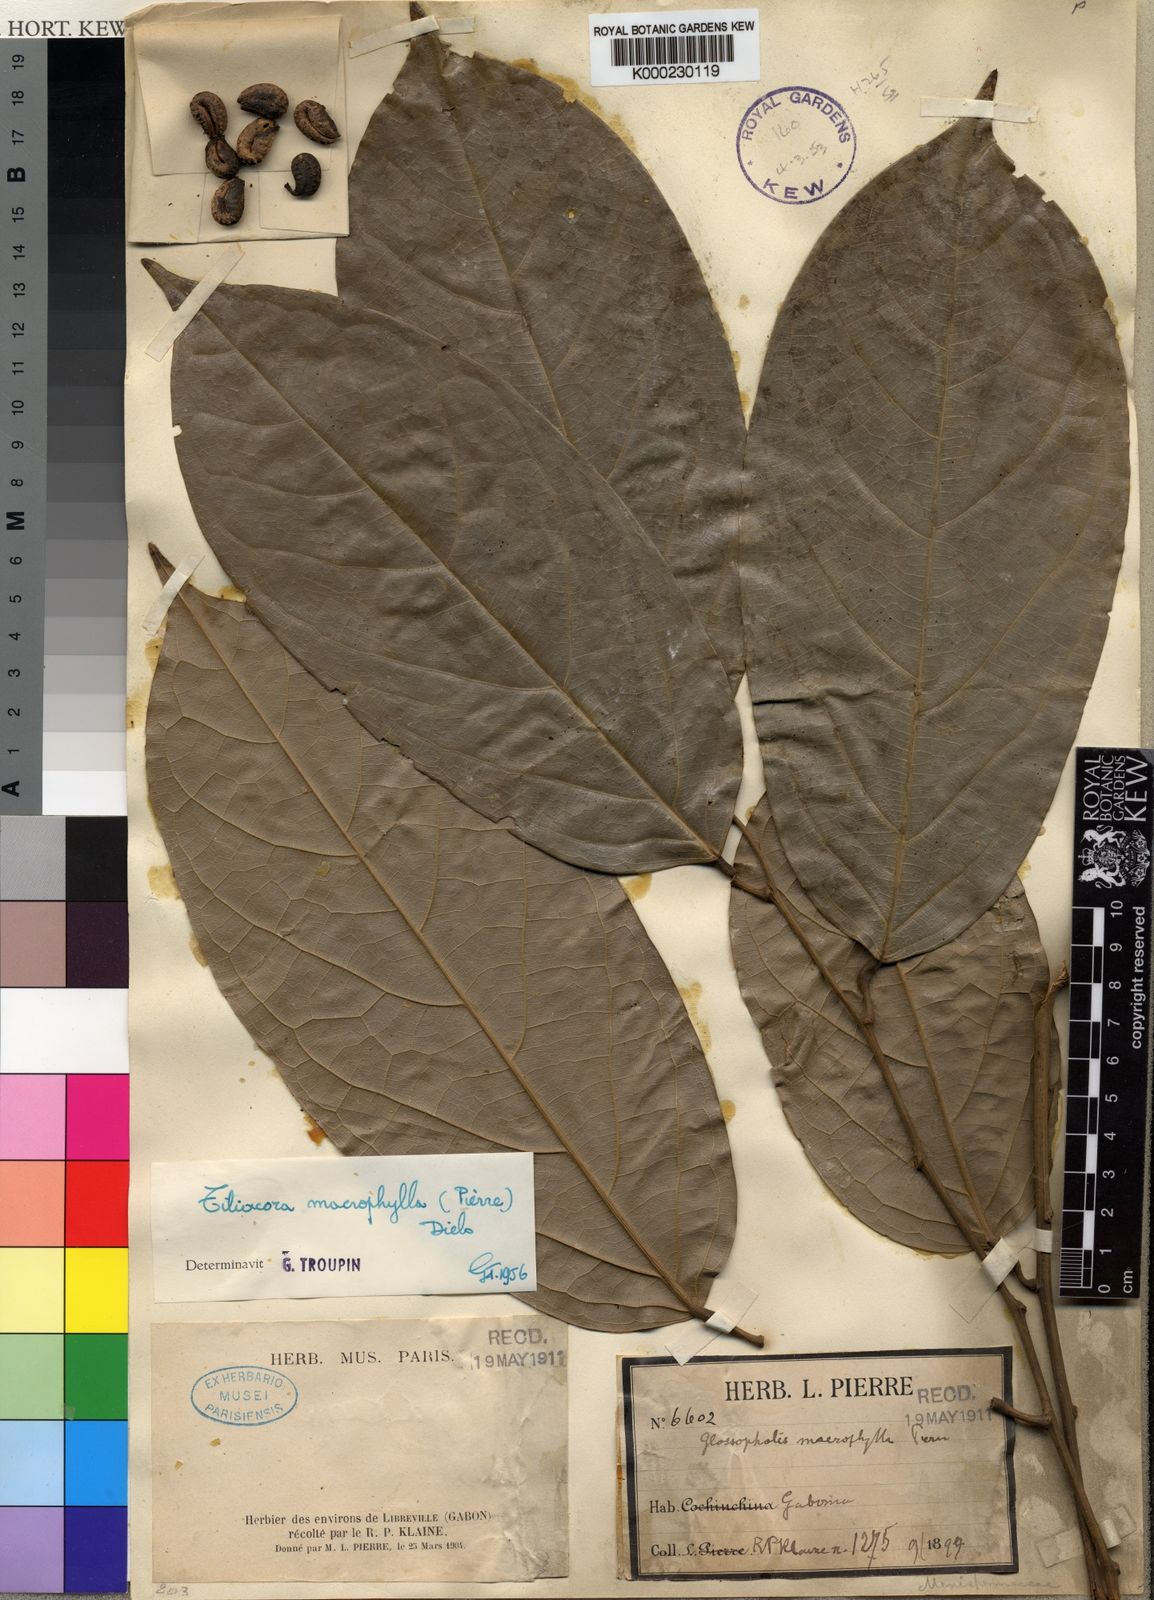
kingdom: Plantae
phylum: Tracheophyta
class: Magnoliopsida
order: Ranunculales
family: Menispermaceae
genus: Tiliacora
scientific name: Tiliacora macrophylla
